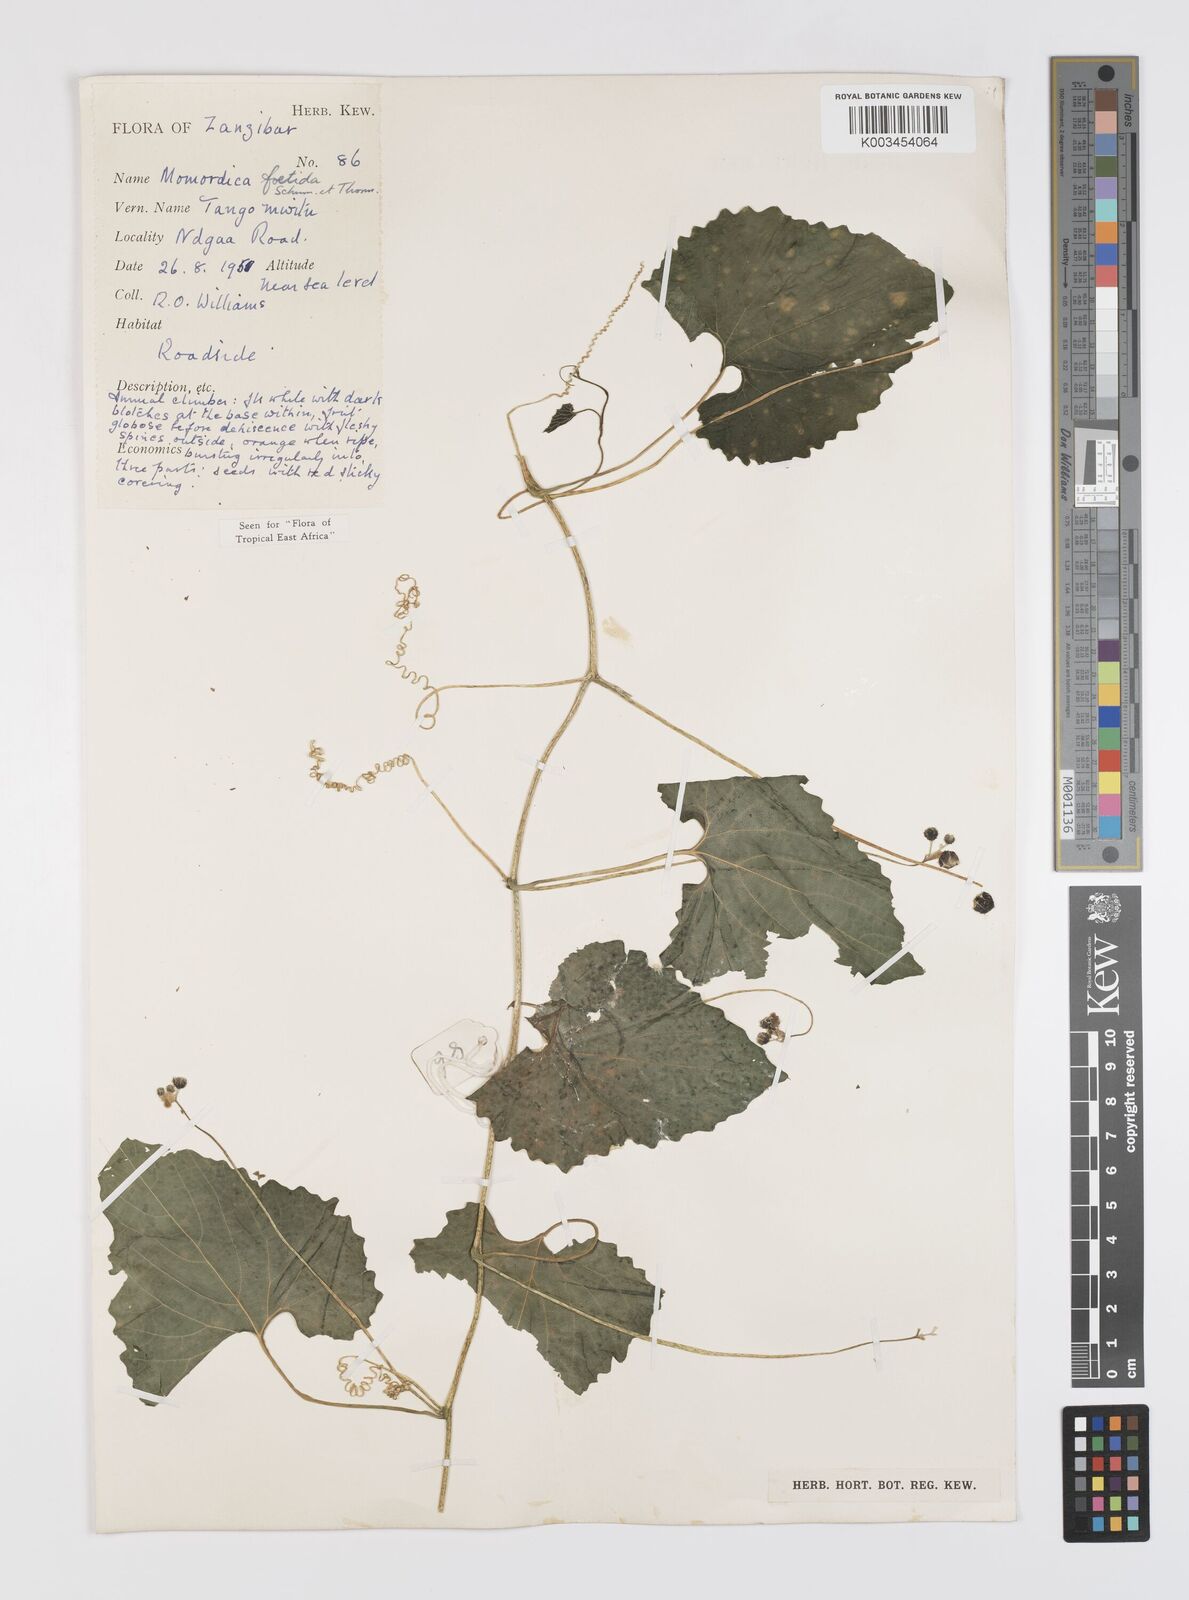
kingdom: Plantae
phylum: Tracheophyta
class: Magnoliopsida
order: Cucurbitales
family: Cucurbitaceae
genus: Momordica
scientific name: Momordica foetida
